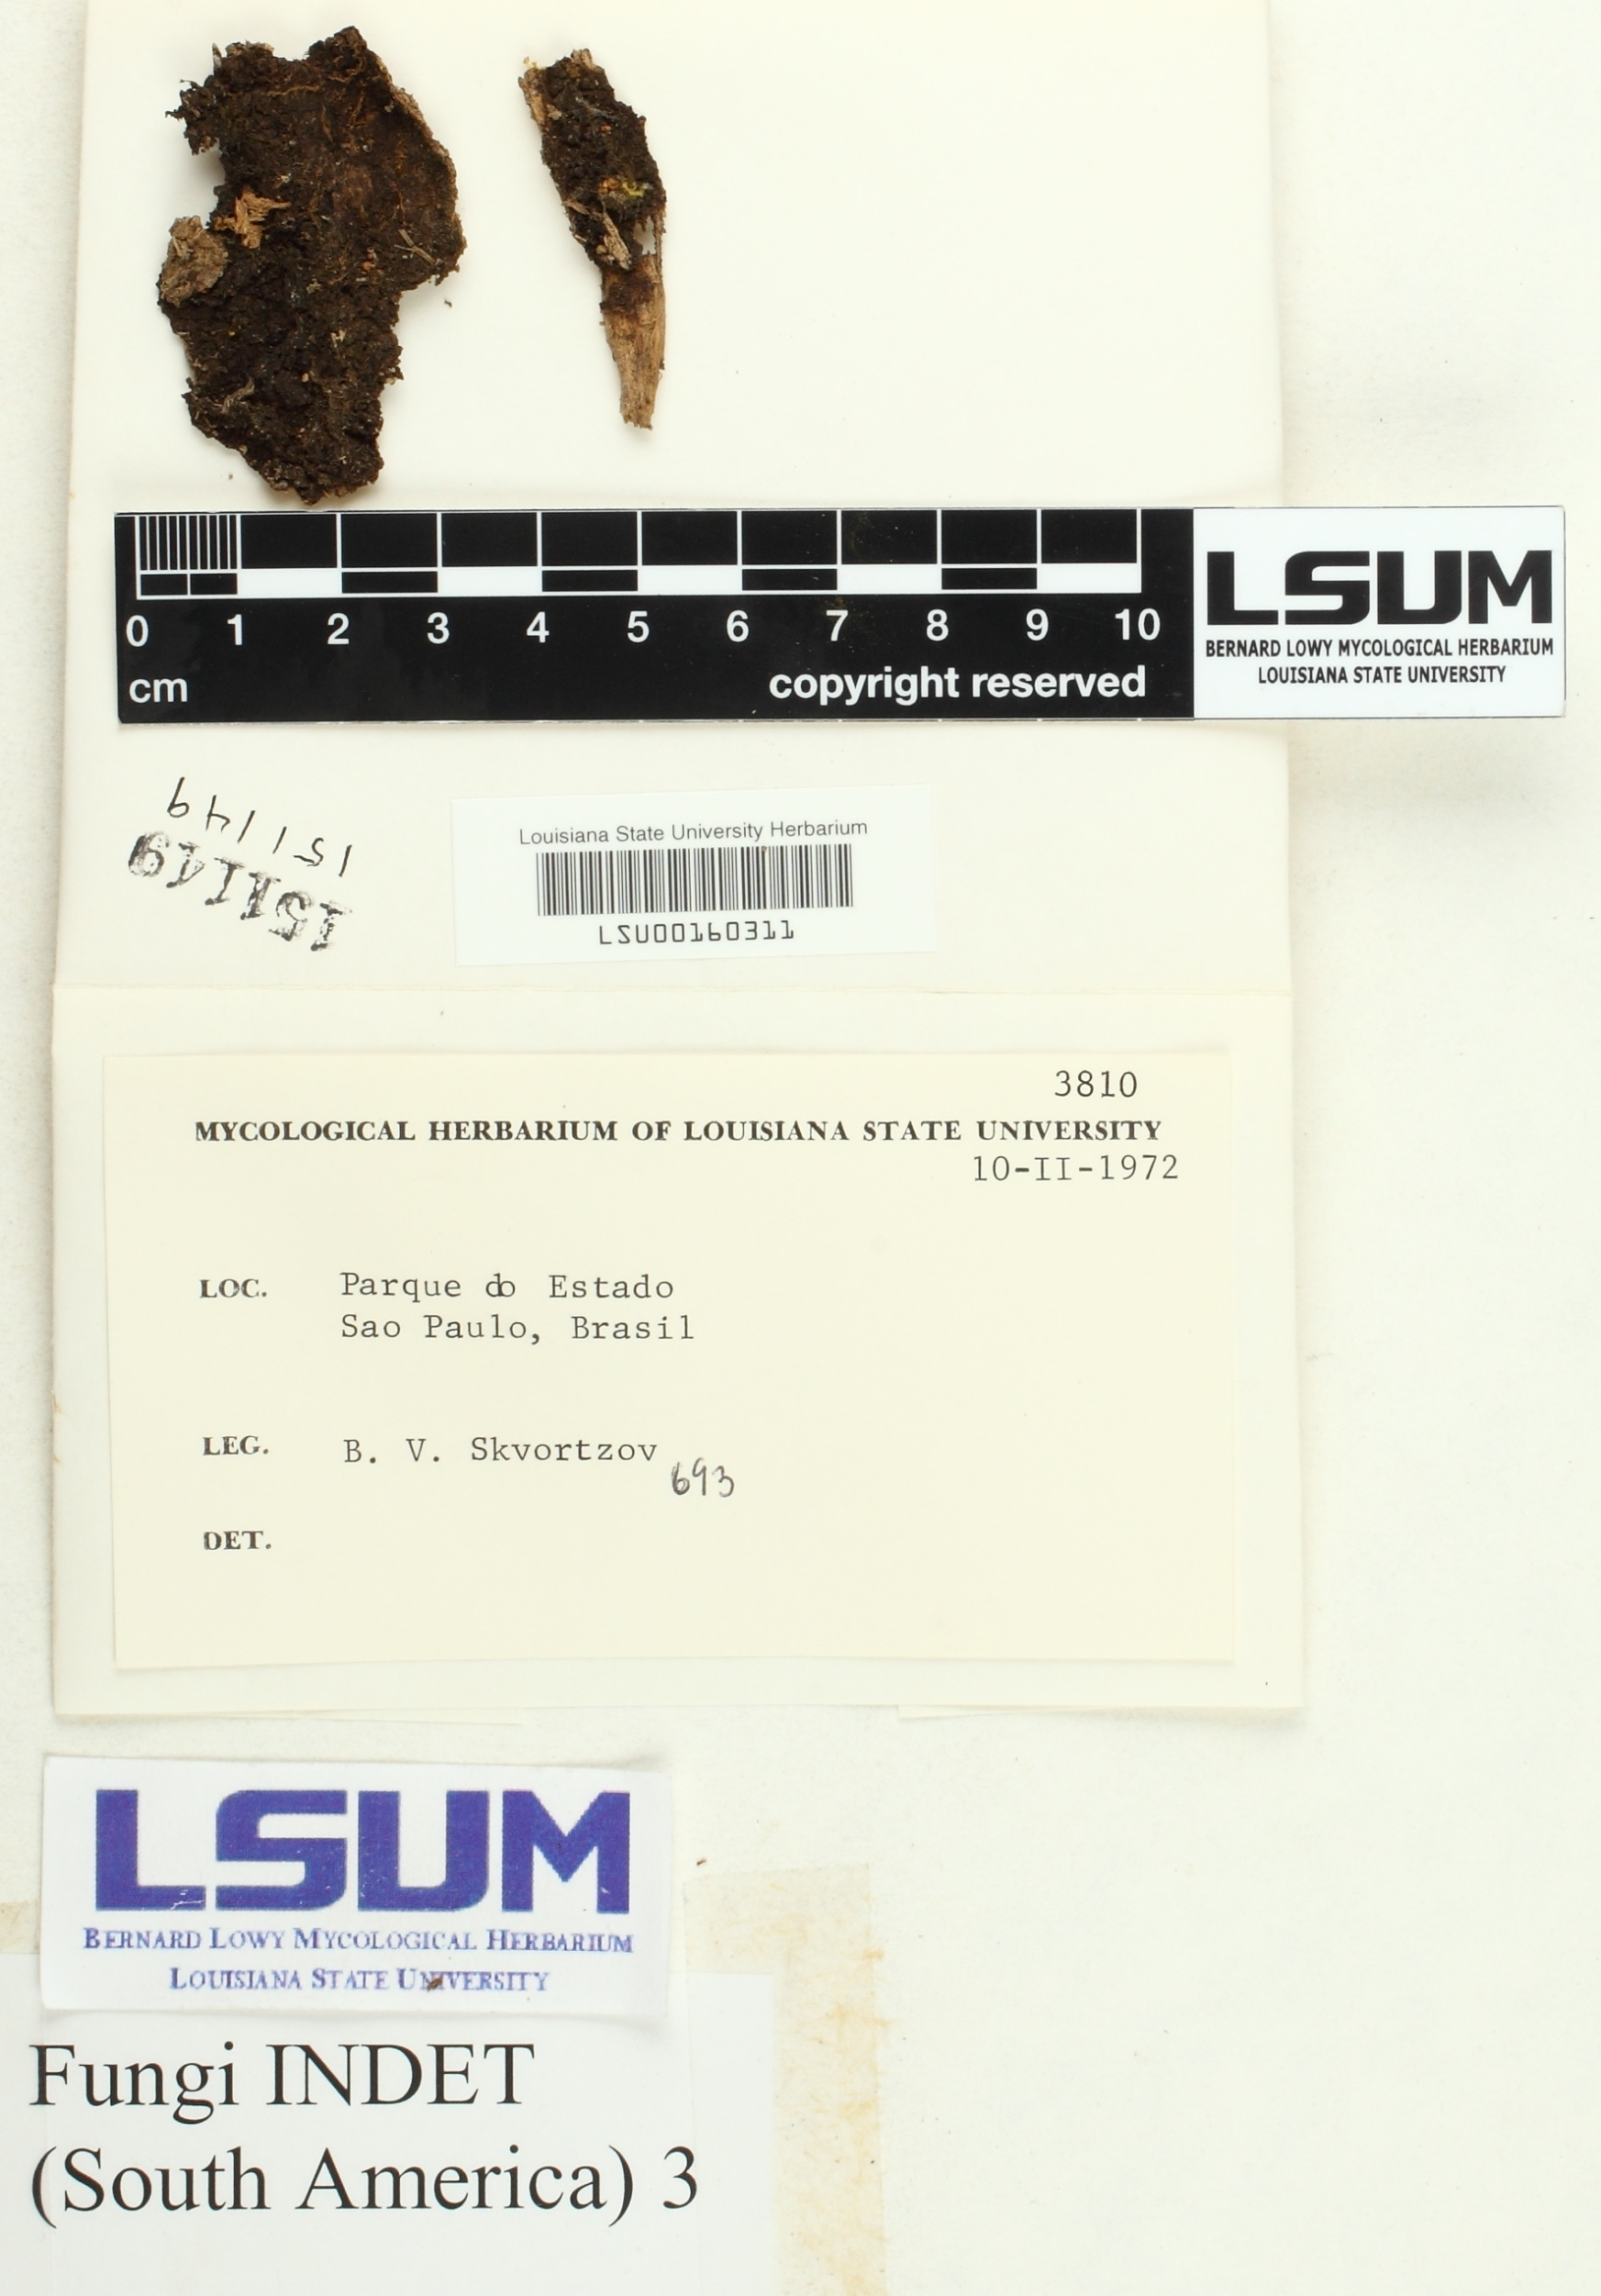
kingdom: Fungi
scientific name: Fungi
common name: Fungi
